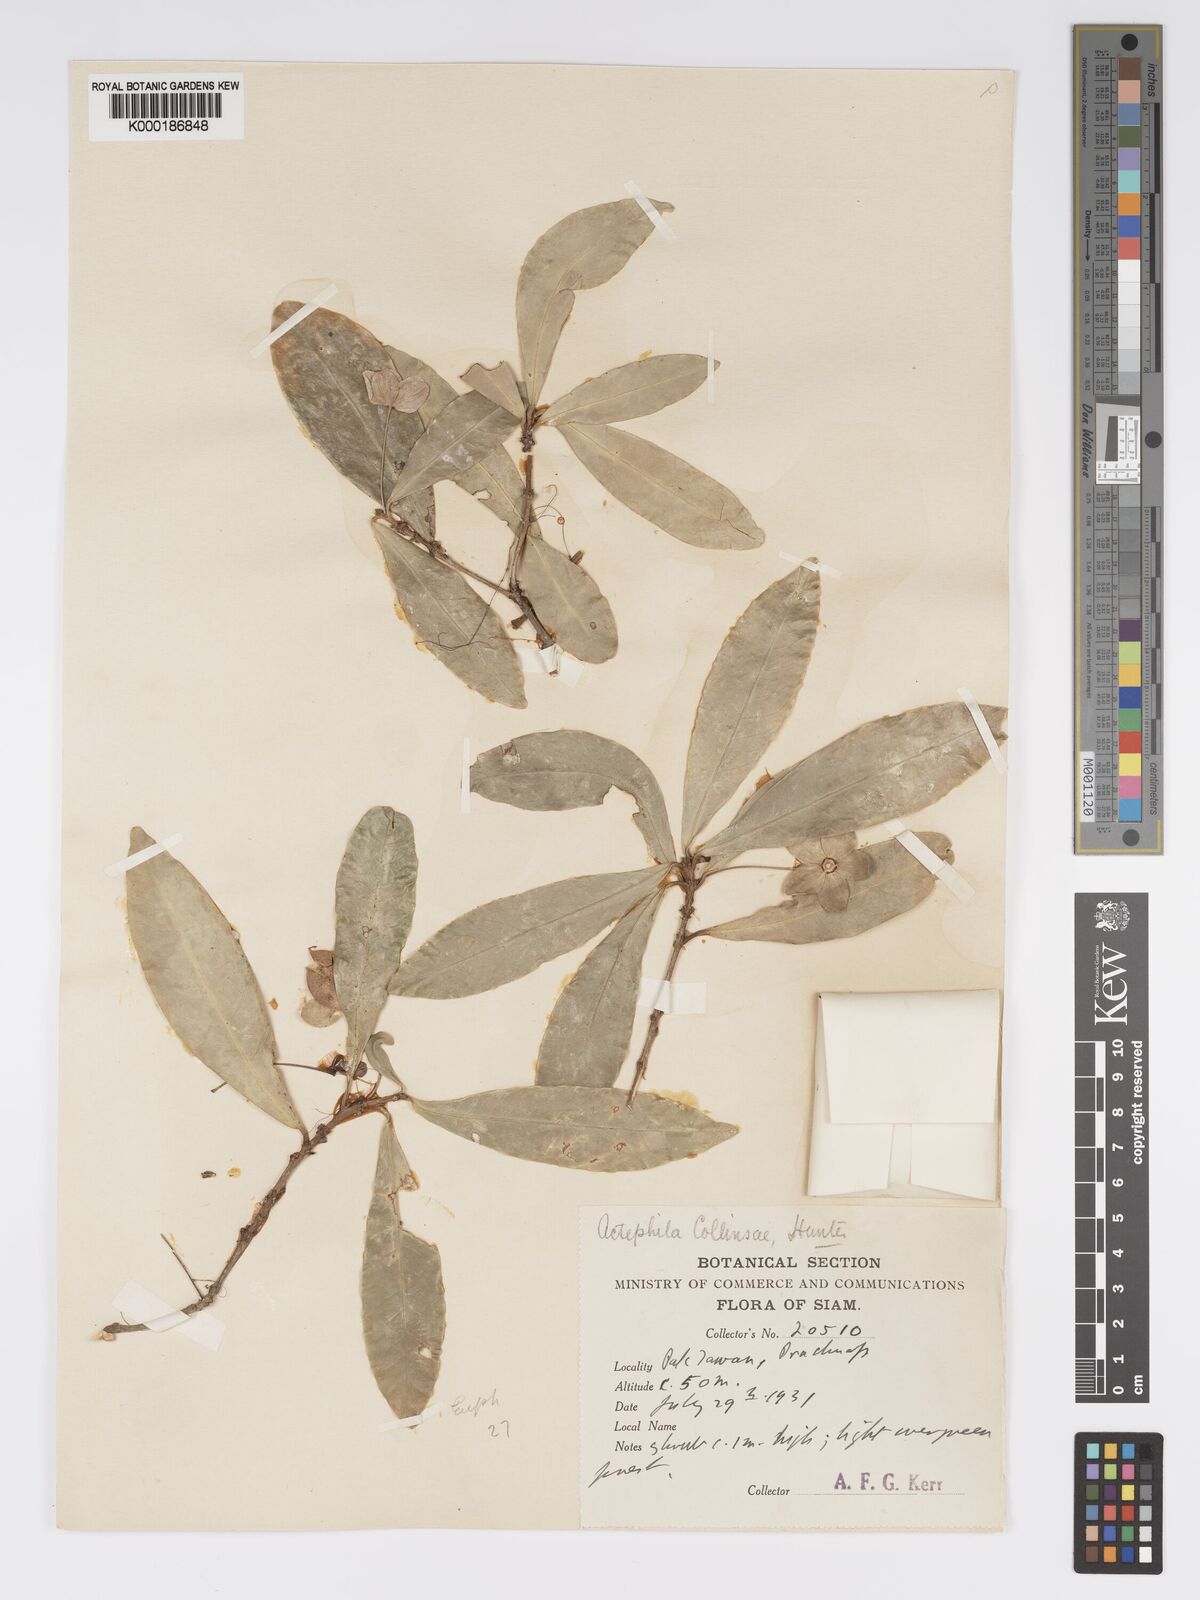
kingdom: Plantae
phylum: Tracheophyta
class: Magnoliopsida
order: Malpighiales
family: Phyllanthaceae
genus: Actephila
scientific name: Actephila collinsiae
